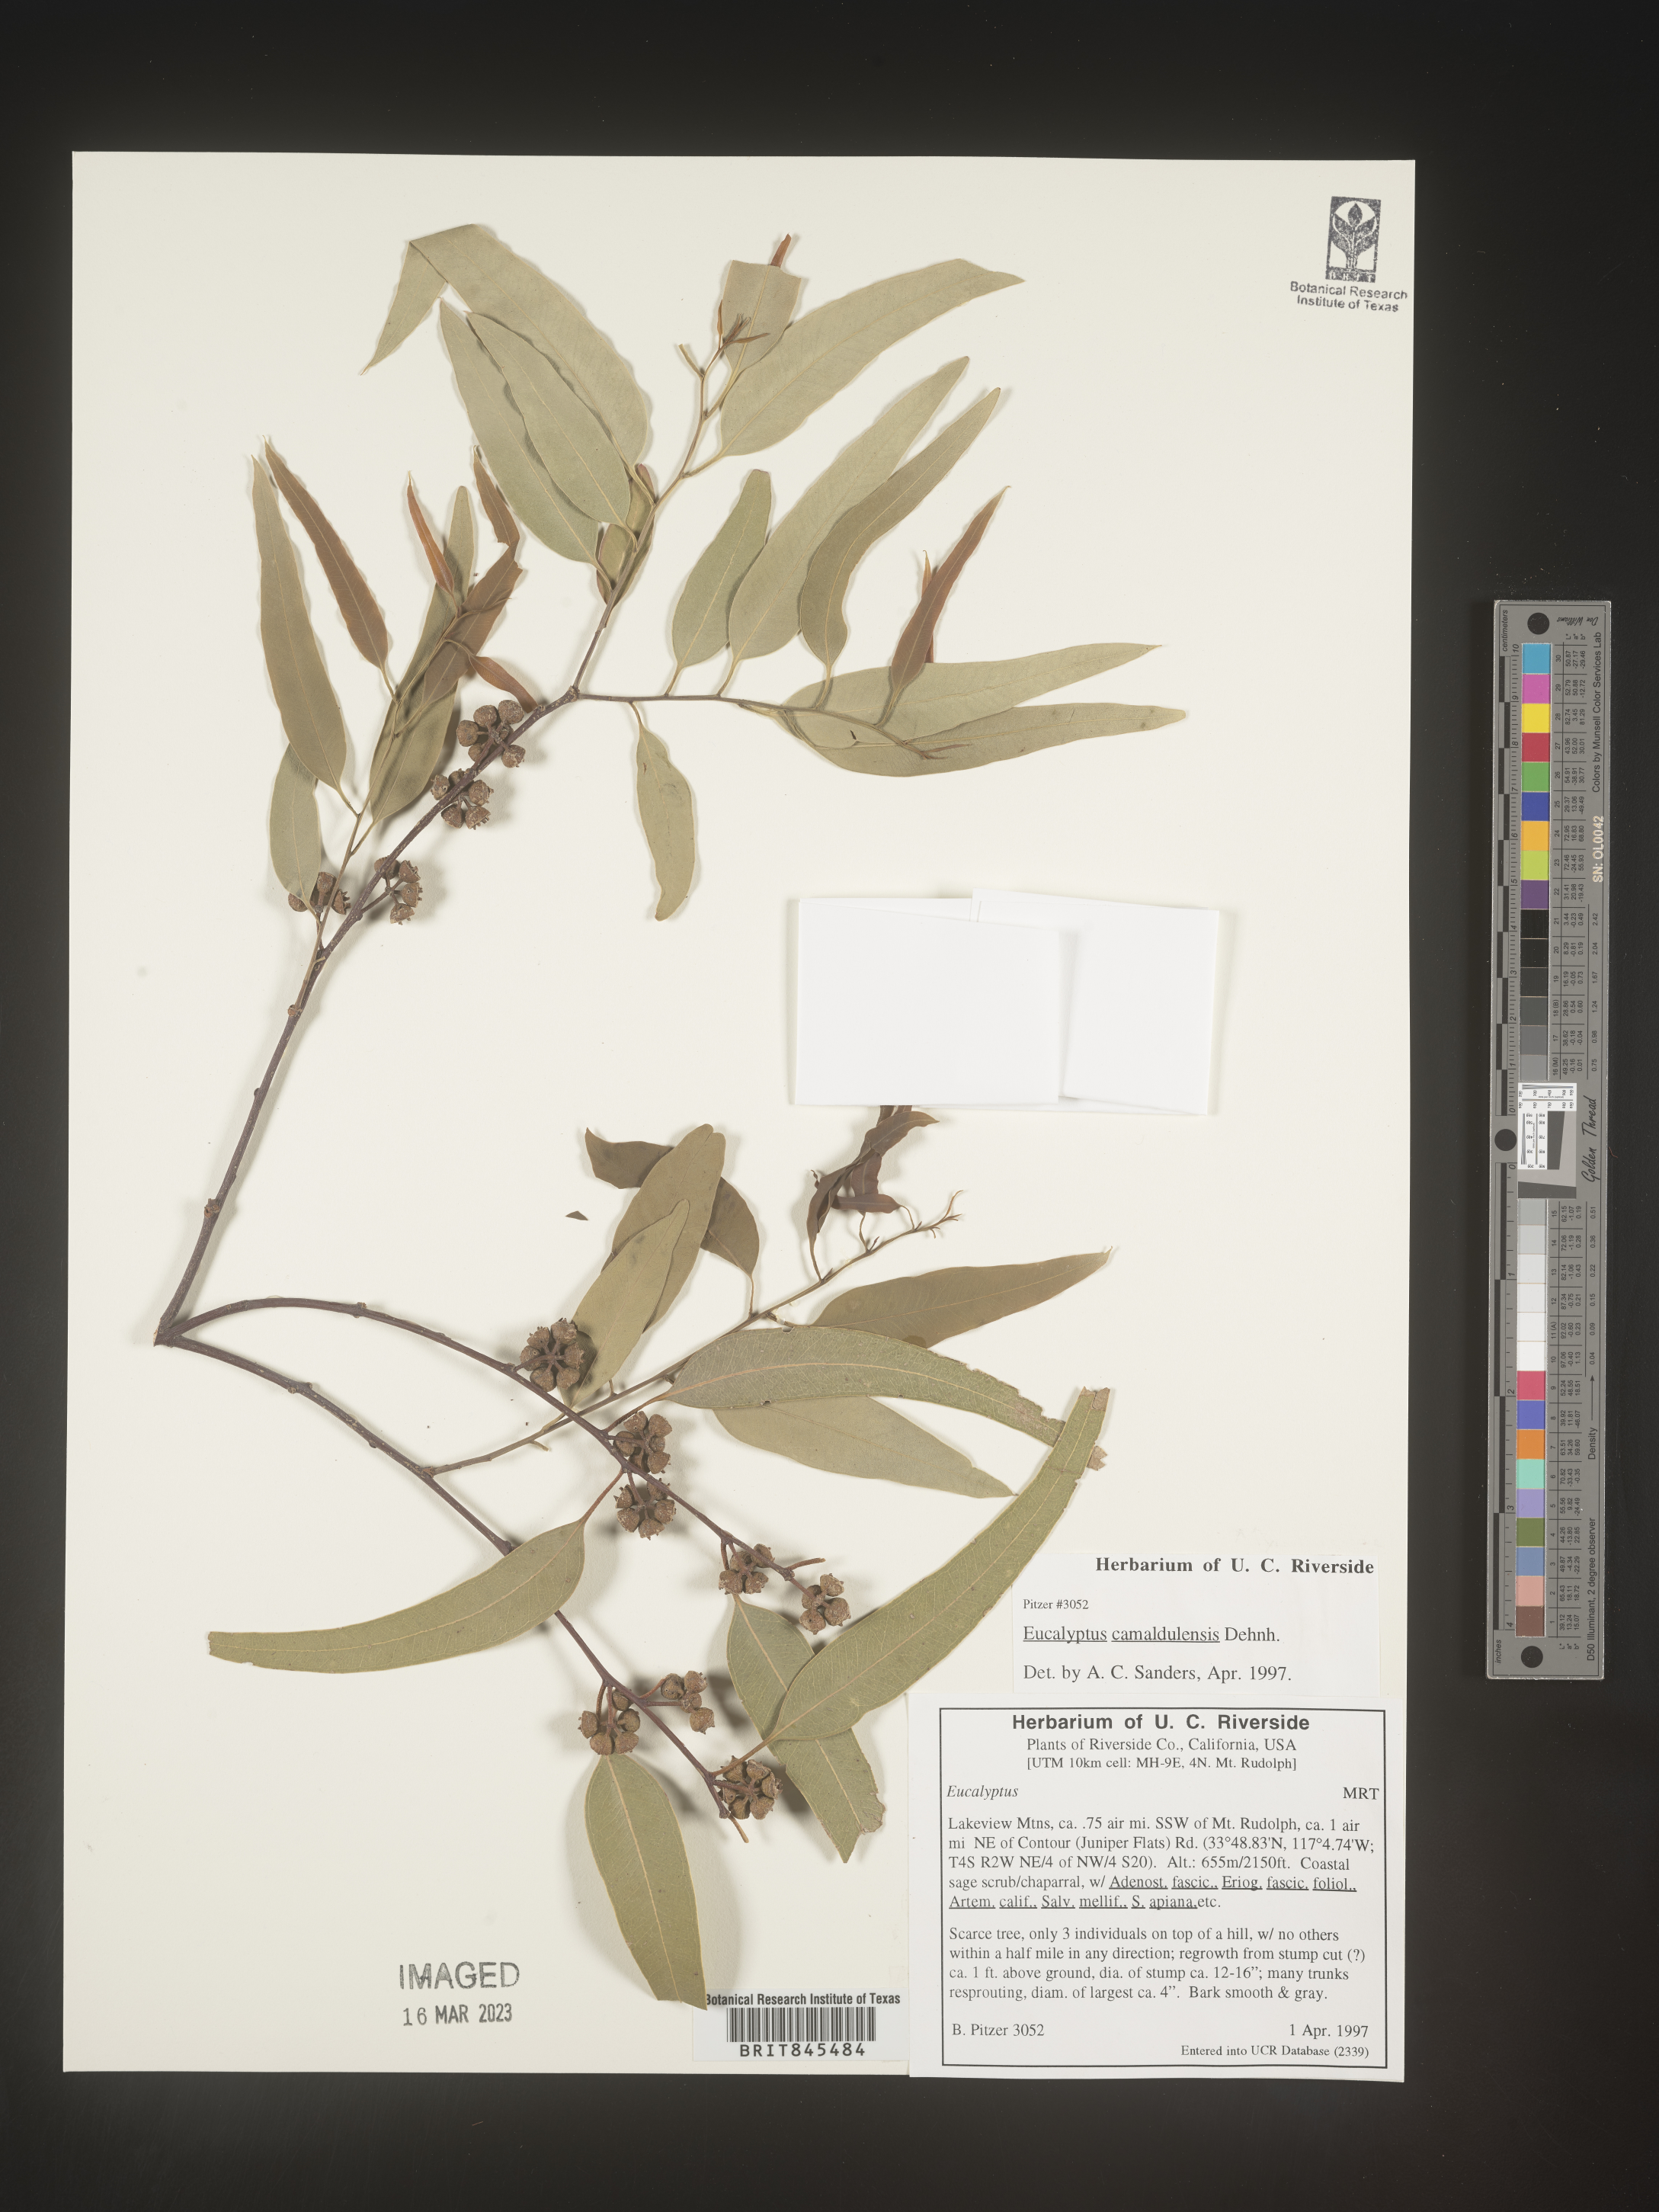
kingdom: Plantae
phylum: Tracheophyta
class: Magnoliopsida
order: Myrtales
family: Myrtaceae
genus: Eucalyptus
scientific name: Eucalyptus
